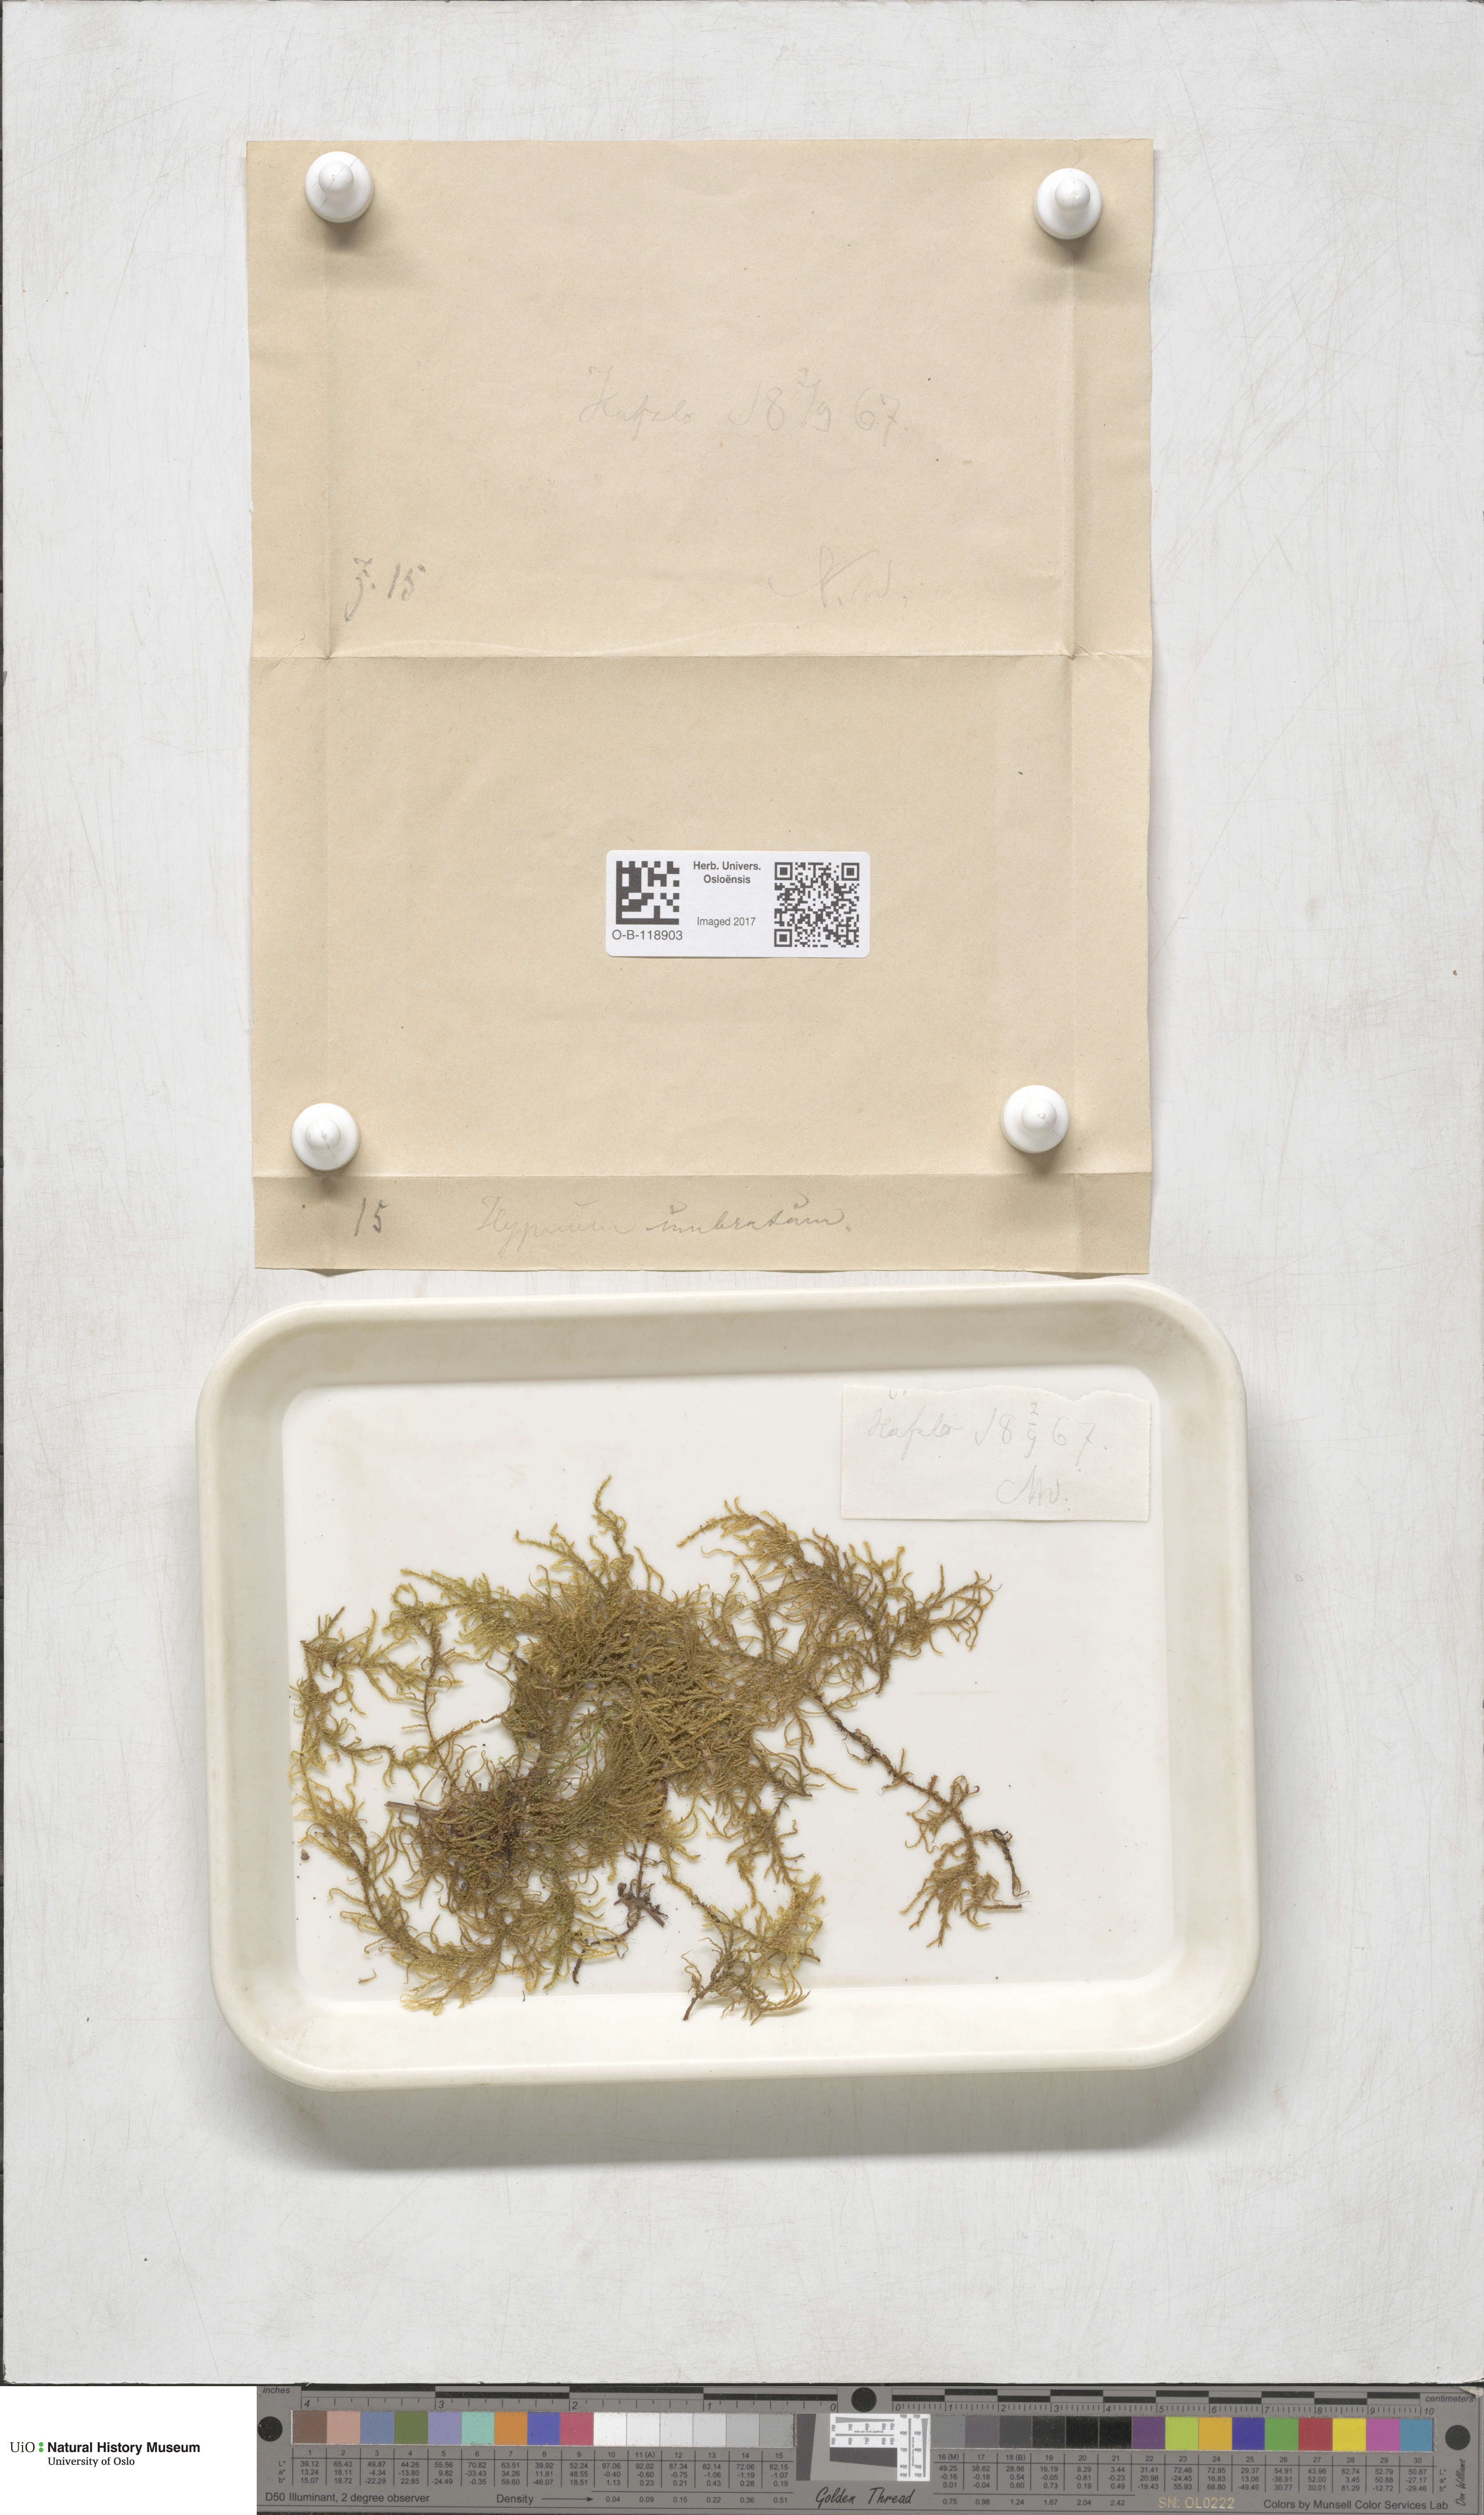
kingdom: Plantae
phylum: Bryophyta
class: Bryopsida
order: Hypnales
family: Hylocomiaceae
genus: Hylocomiastrum
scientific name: Hylocomiastrum umbratum
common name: Shaded woods moss
